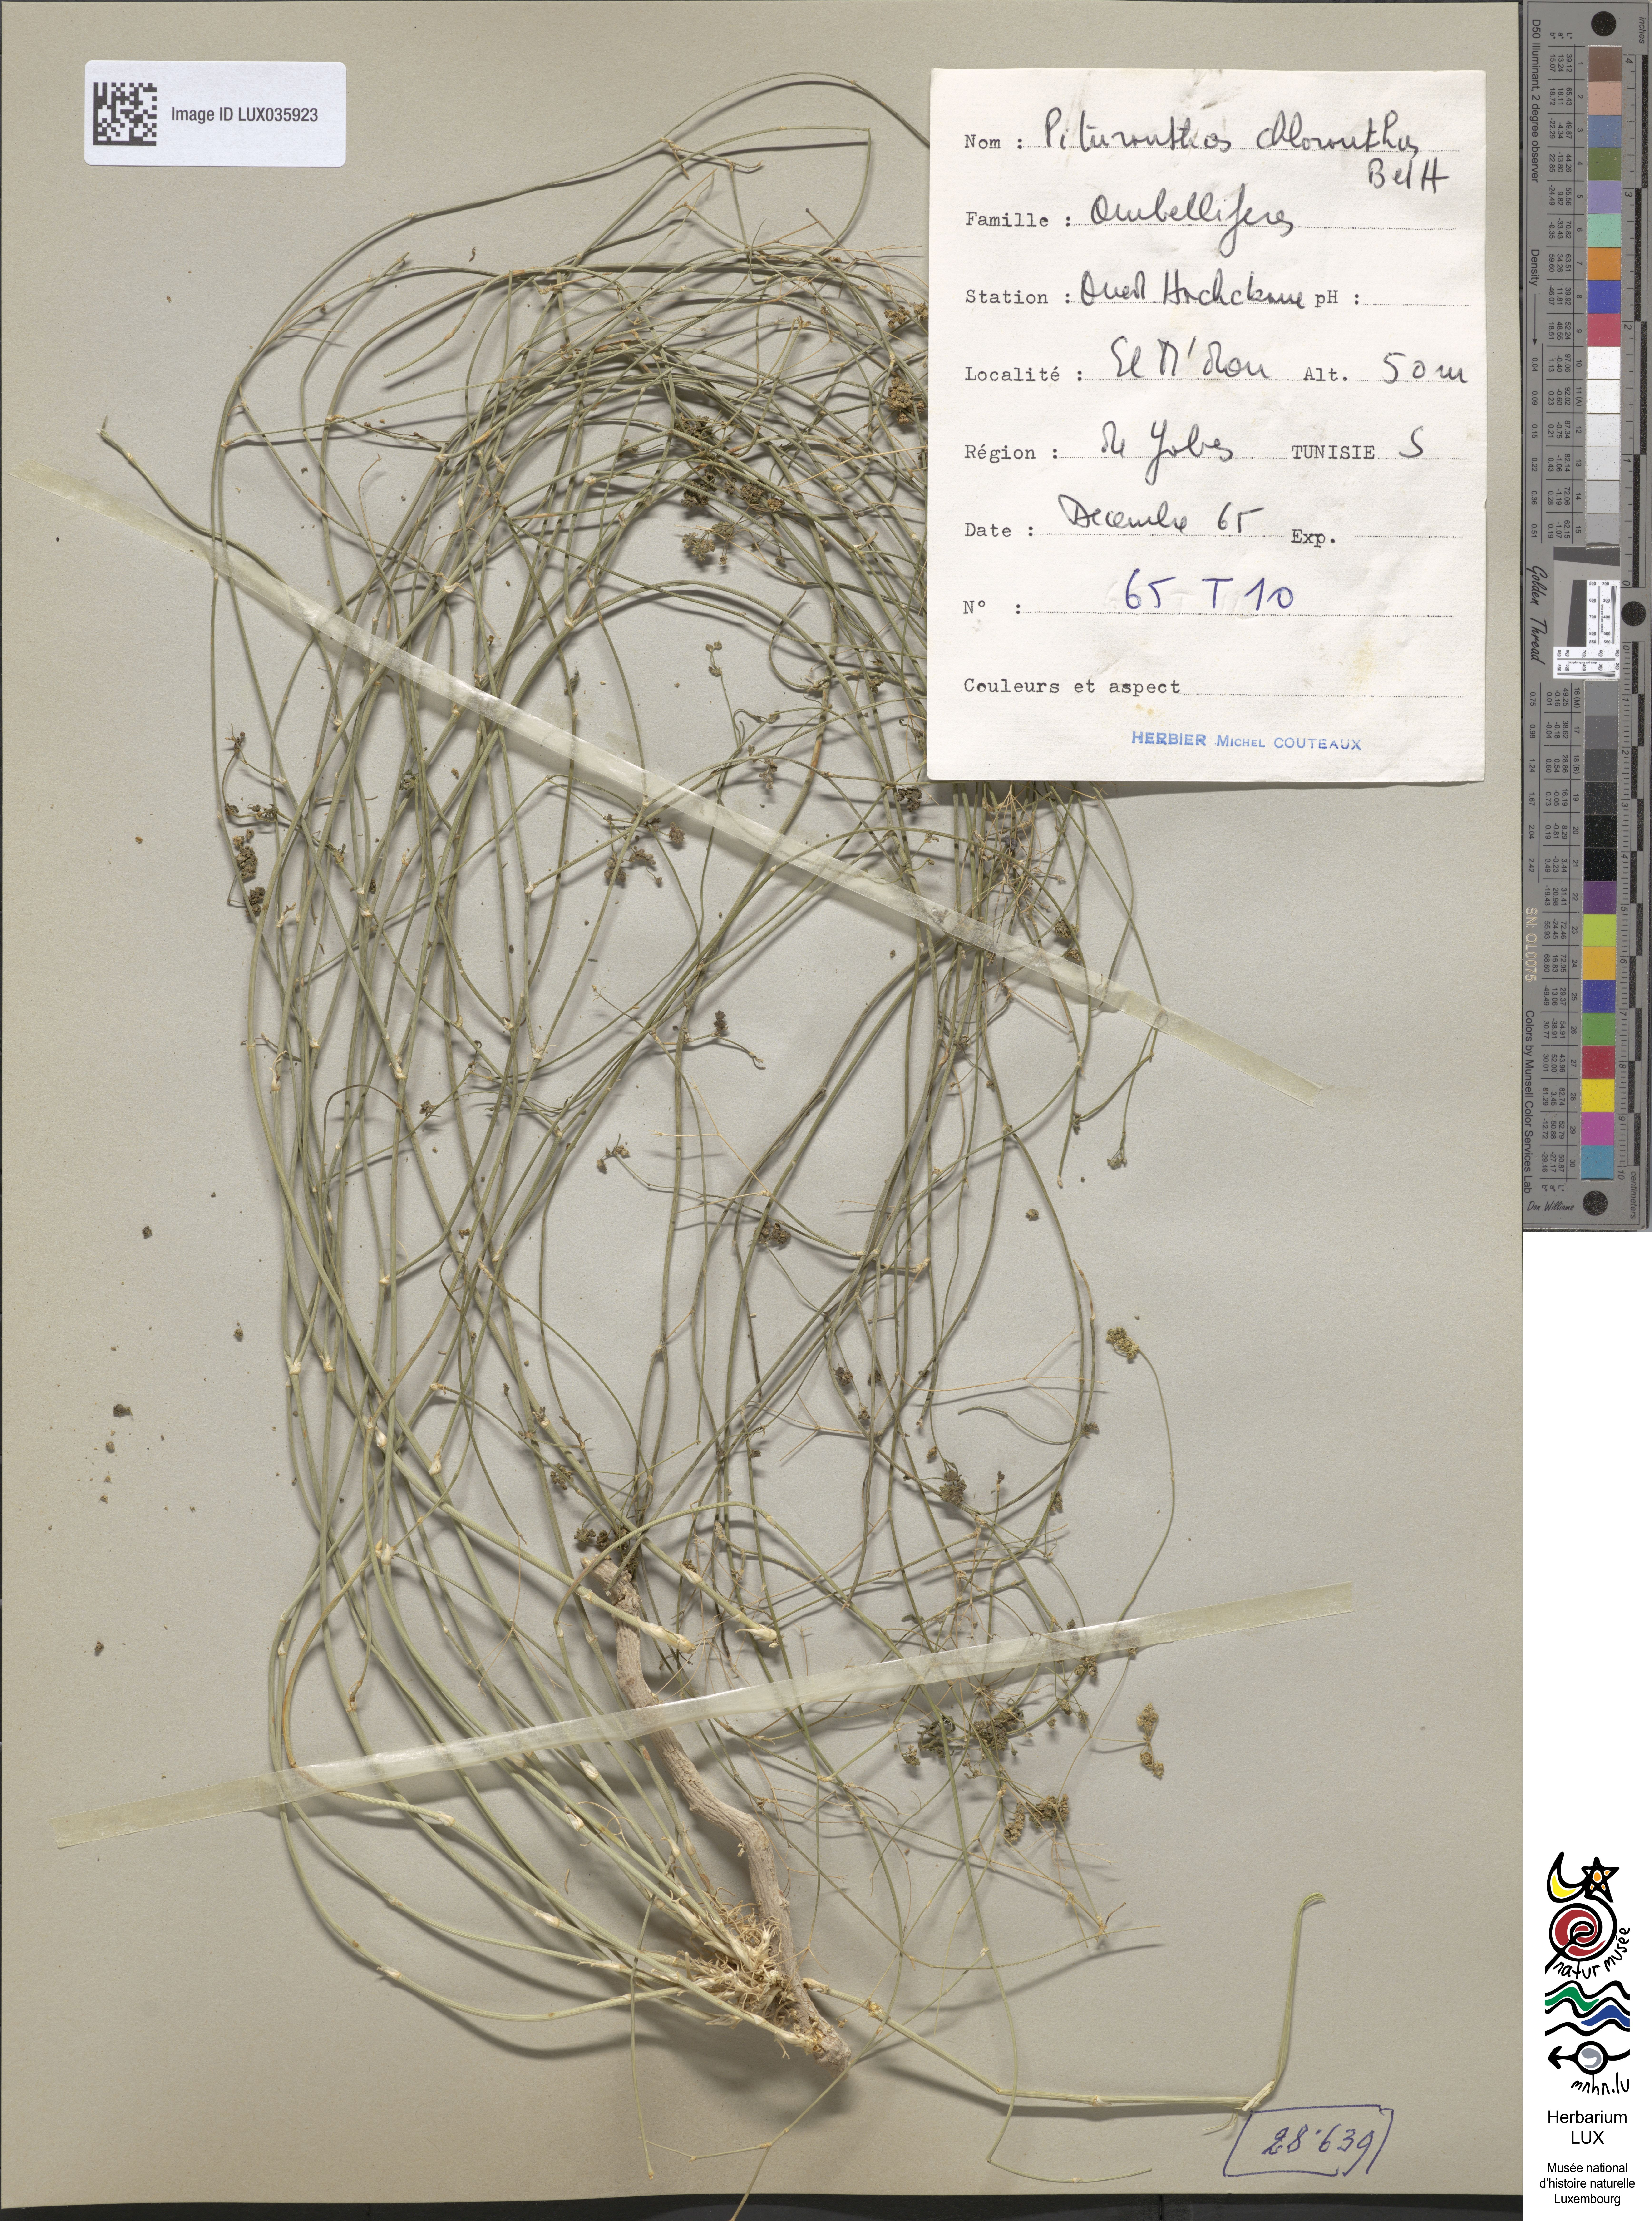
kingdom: Plantae
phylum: Tracheophyta
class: Magnoliopsida
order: Apiales
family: Apiaceae
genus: Deverra
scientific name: Deverra
